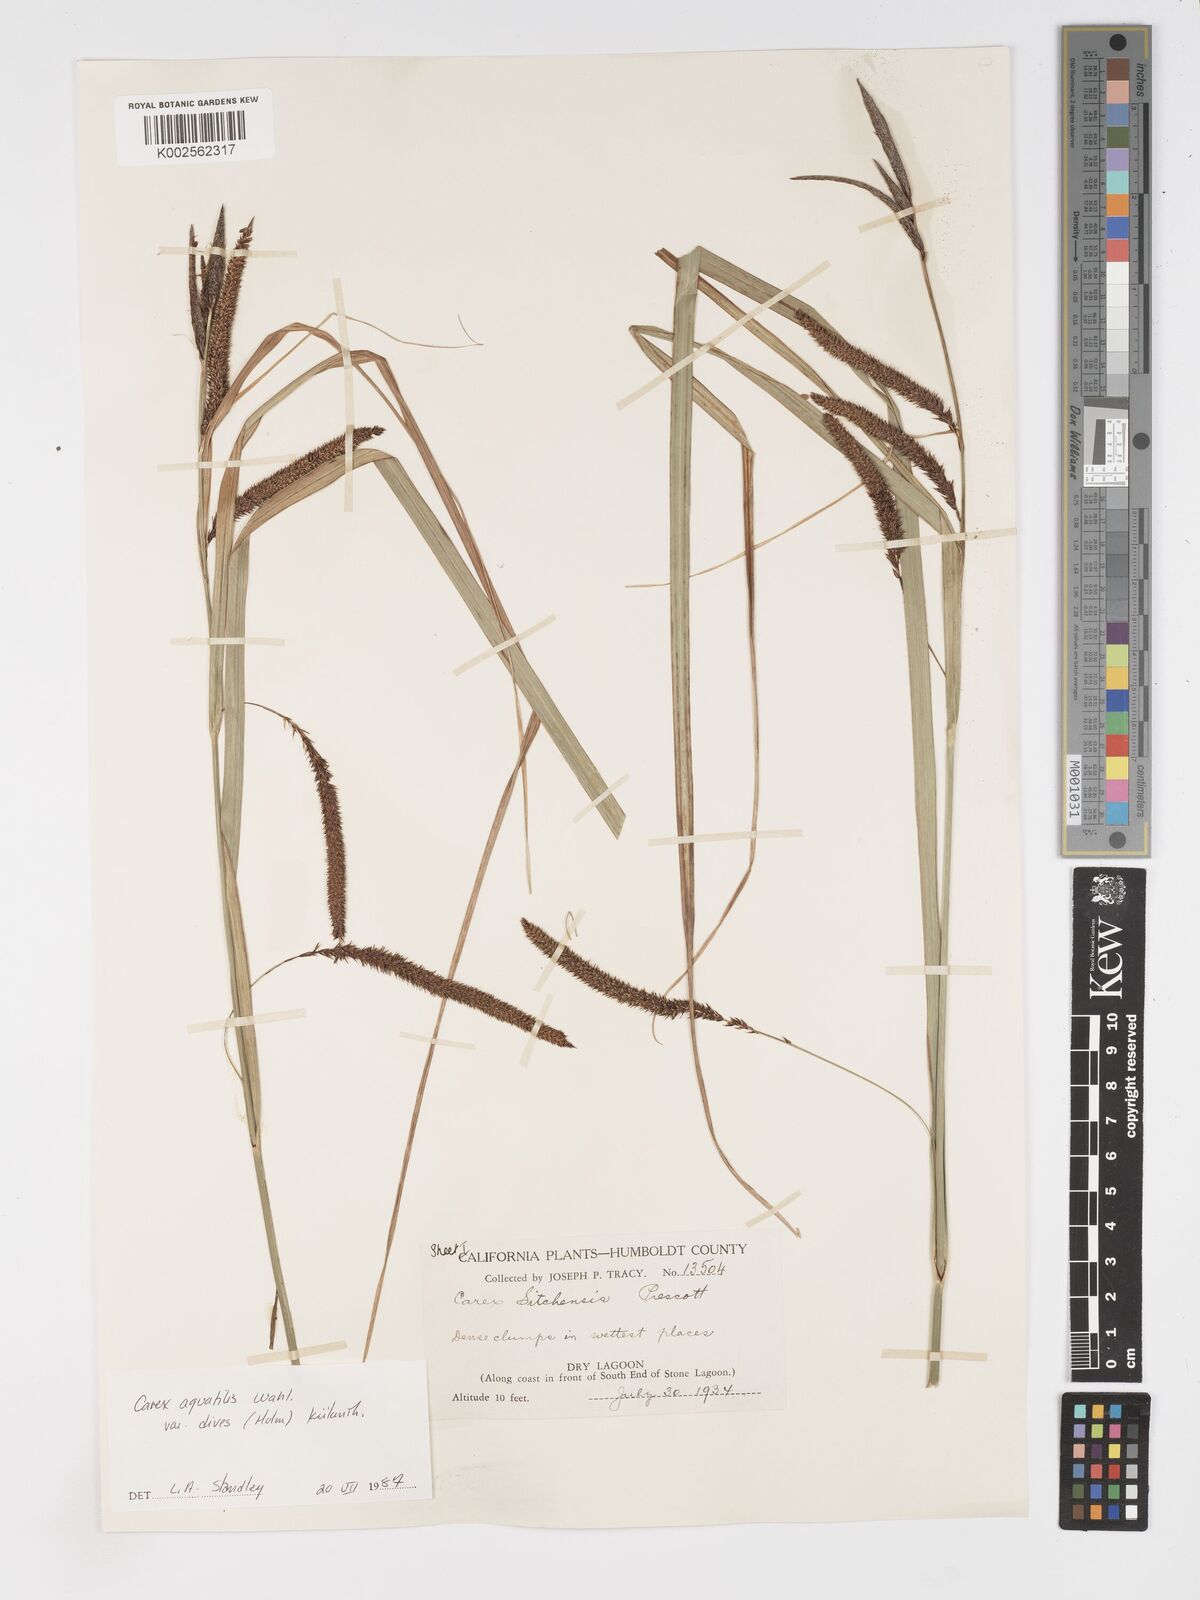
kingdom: Plantae
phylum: Tracheophyta
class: Liliopsida
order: Poales
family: Cyperaceae
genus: Carex
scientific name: Carex aquatilis
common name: Water sedge
